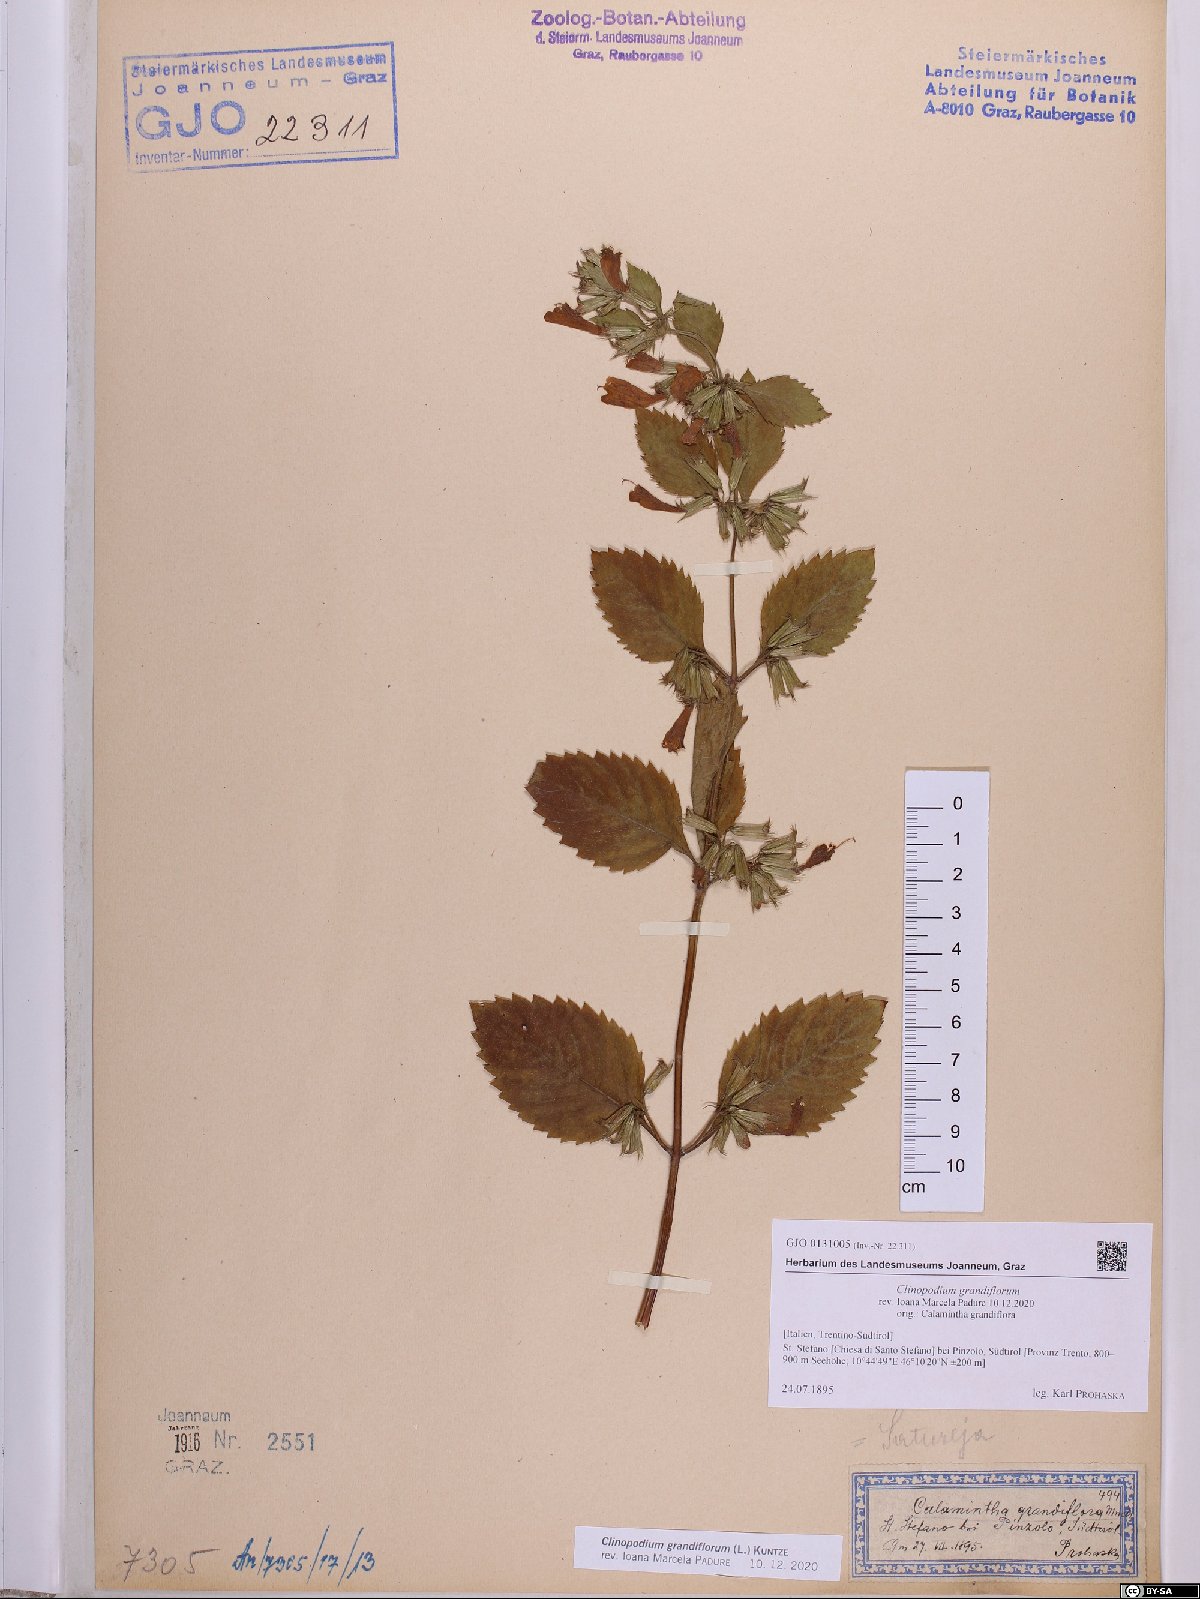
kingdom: Plantae
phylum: Tracheophyta
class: Magnoliopsida
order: Lamiales
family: Lamiaceae
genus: Clinopodium
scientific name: Clinopodium grandiflorum
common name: Greater calamint
